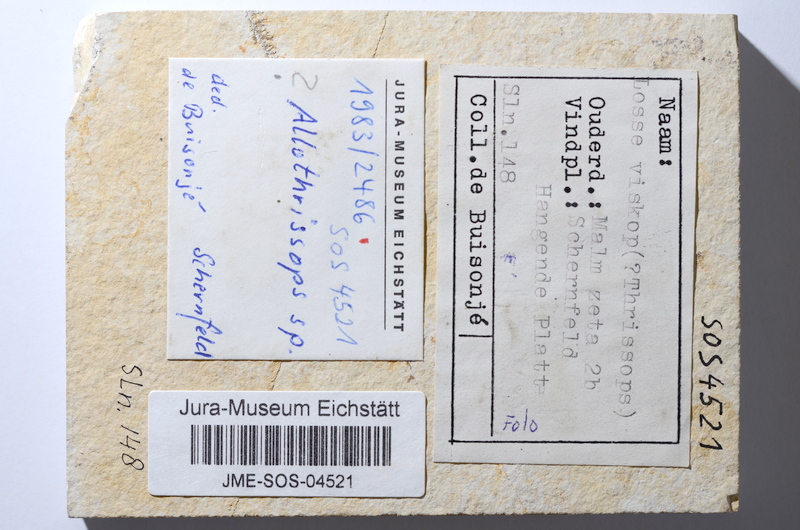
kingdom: Animalia
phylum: Chordata
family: Allothrissopidae
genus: Allothrissops
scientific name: Allothrissops
